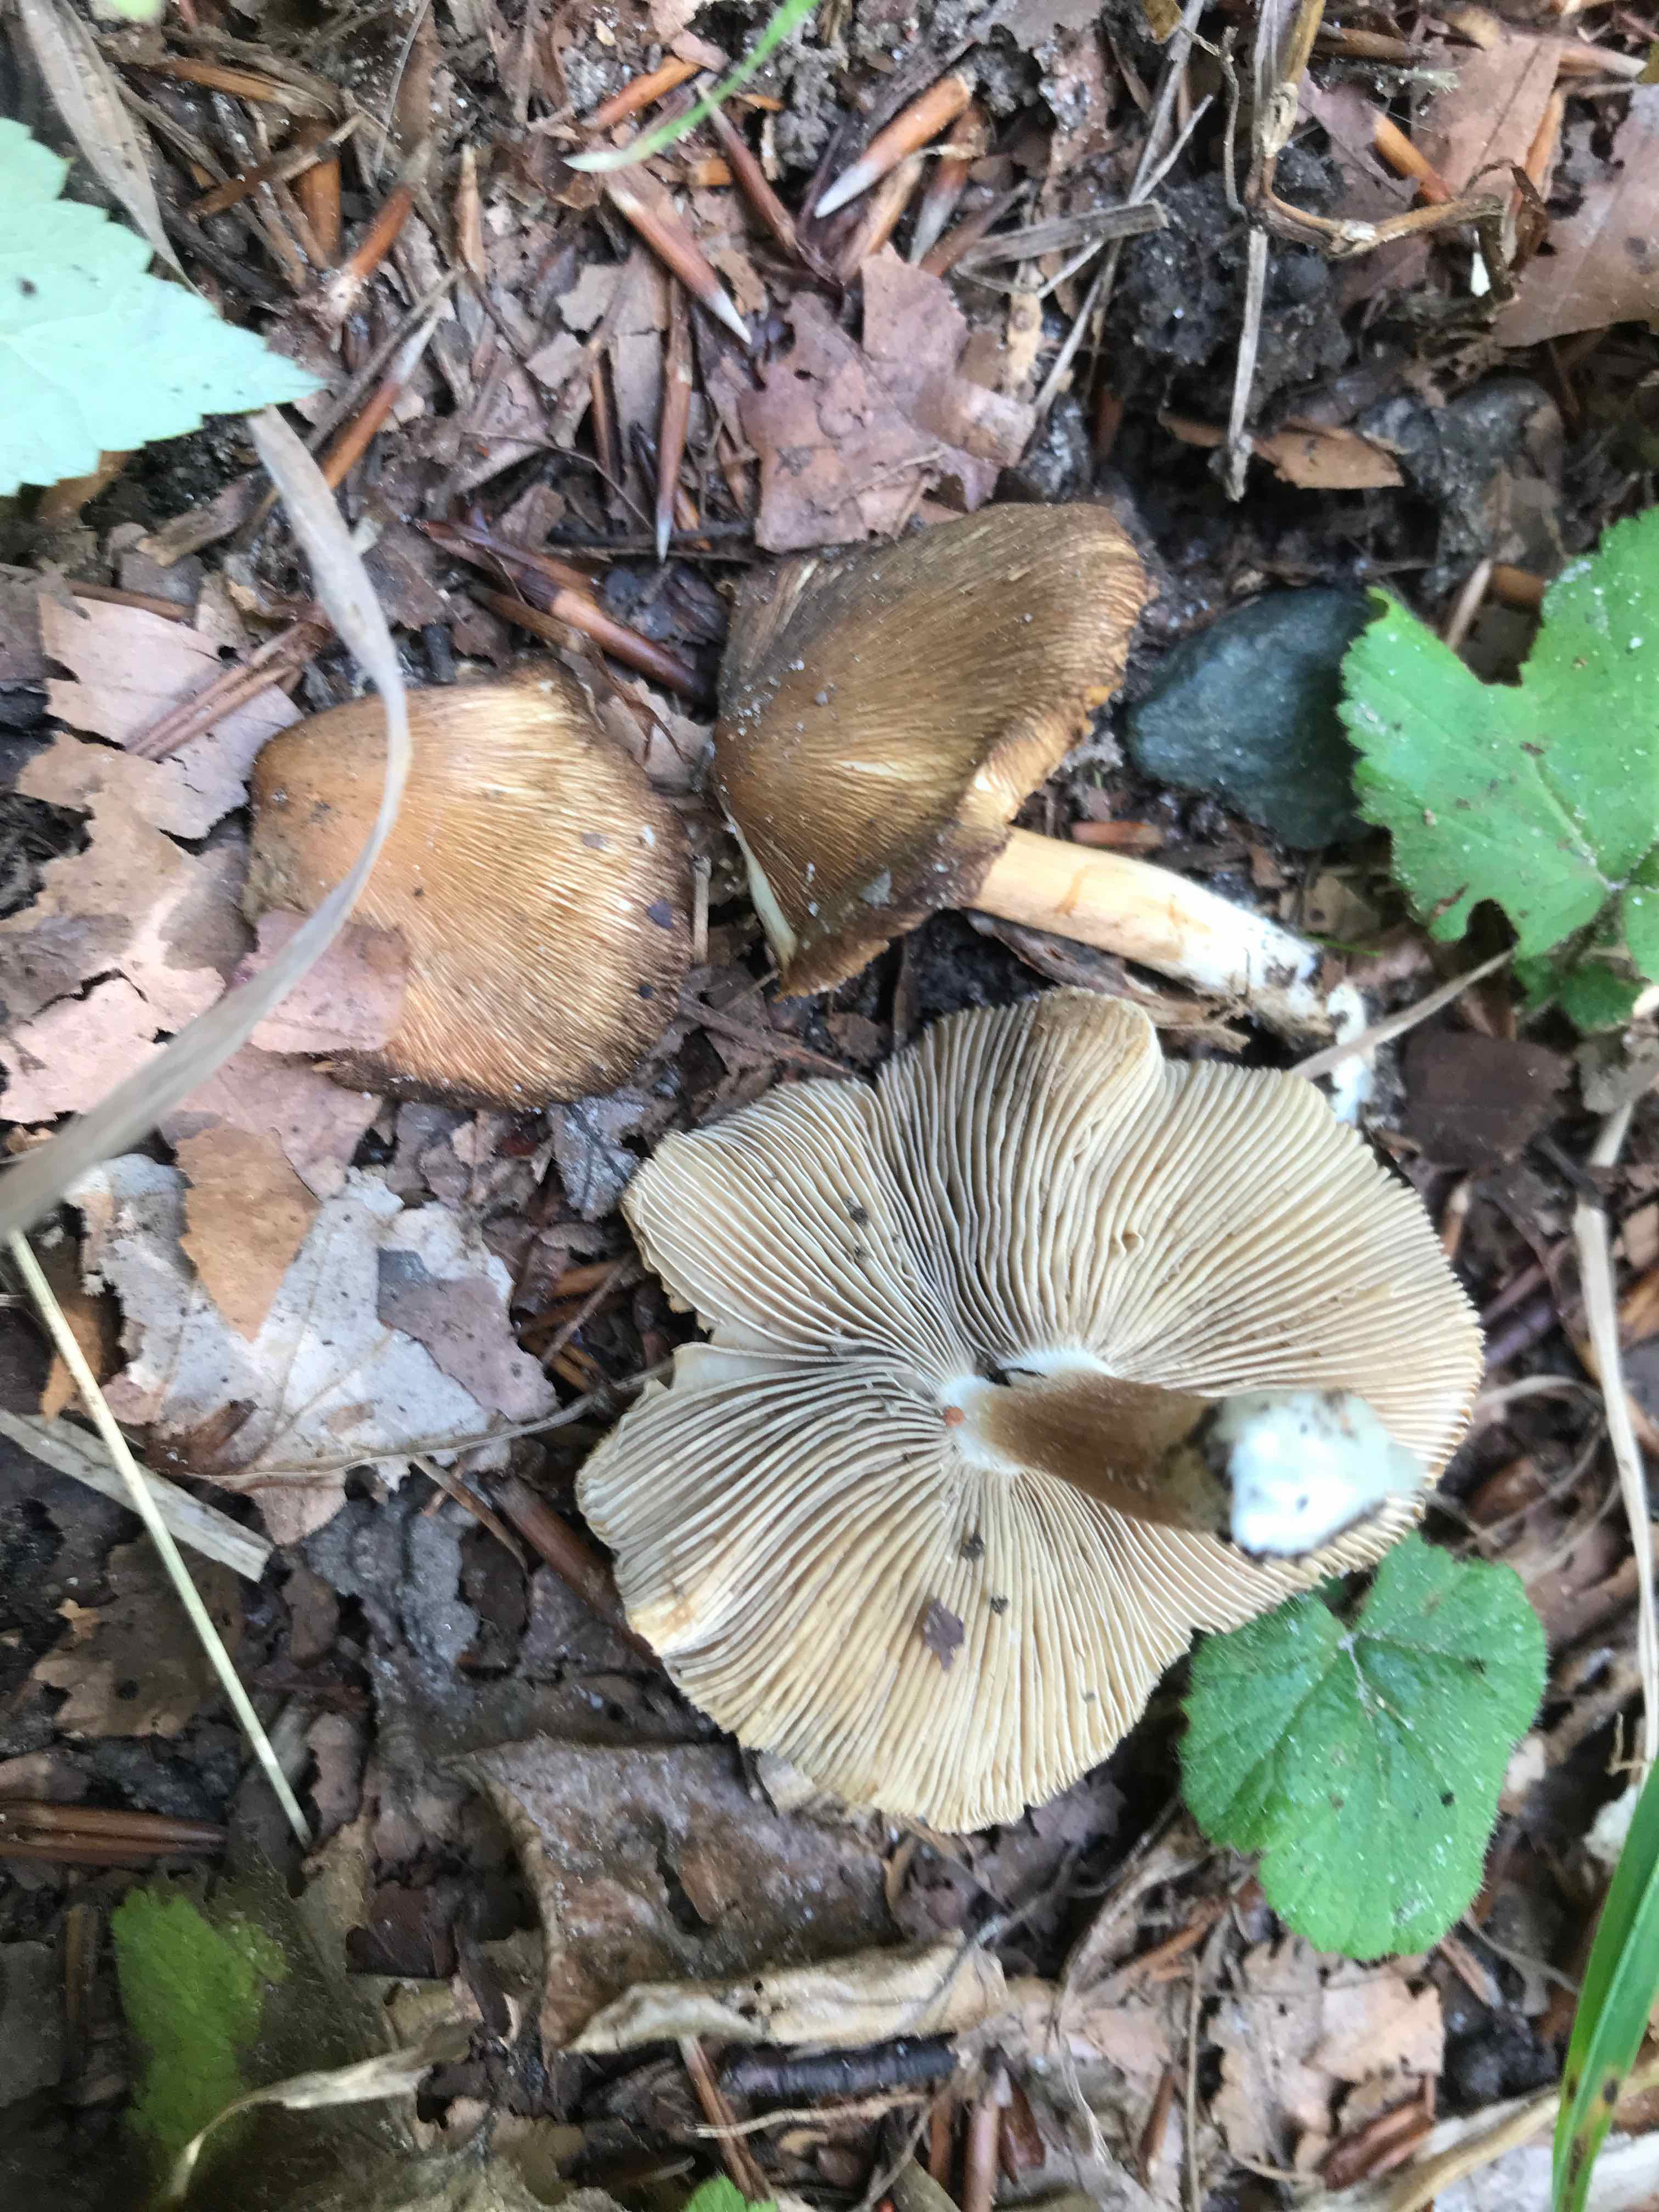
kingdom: Fungi
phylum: Basidiomycota
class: Agaricomycetes
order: Agaricales
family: Inocybaceae
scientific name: Inocybaceae
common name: trævlhatfamilien
